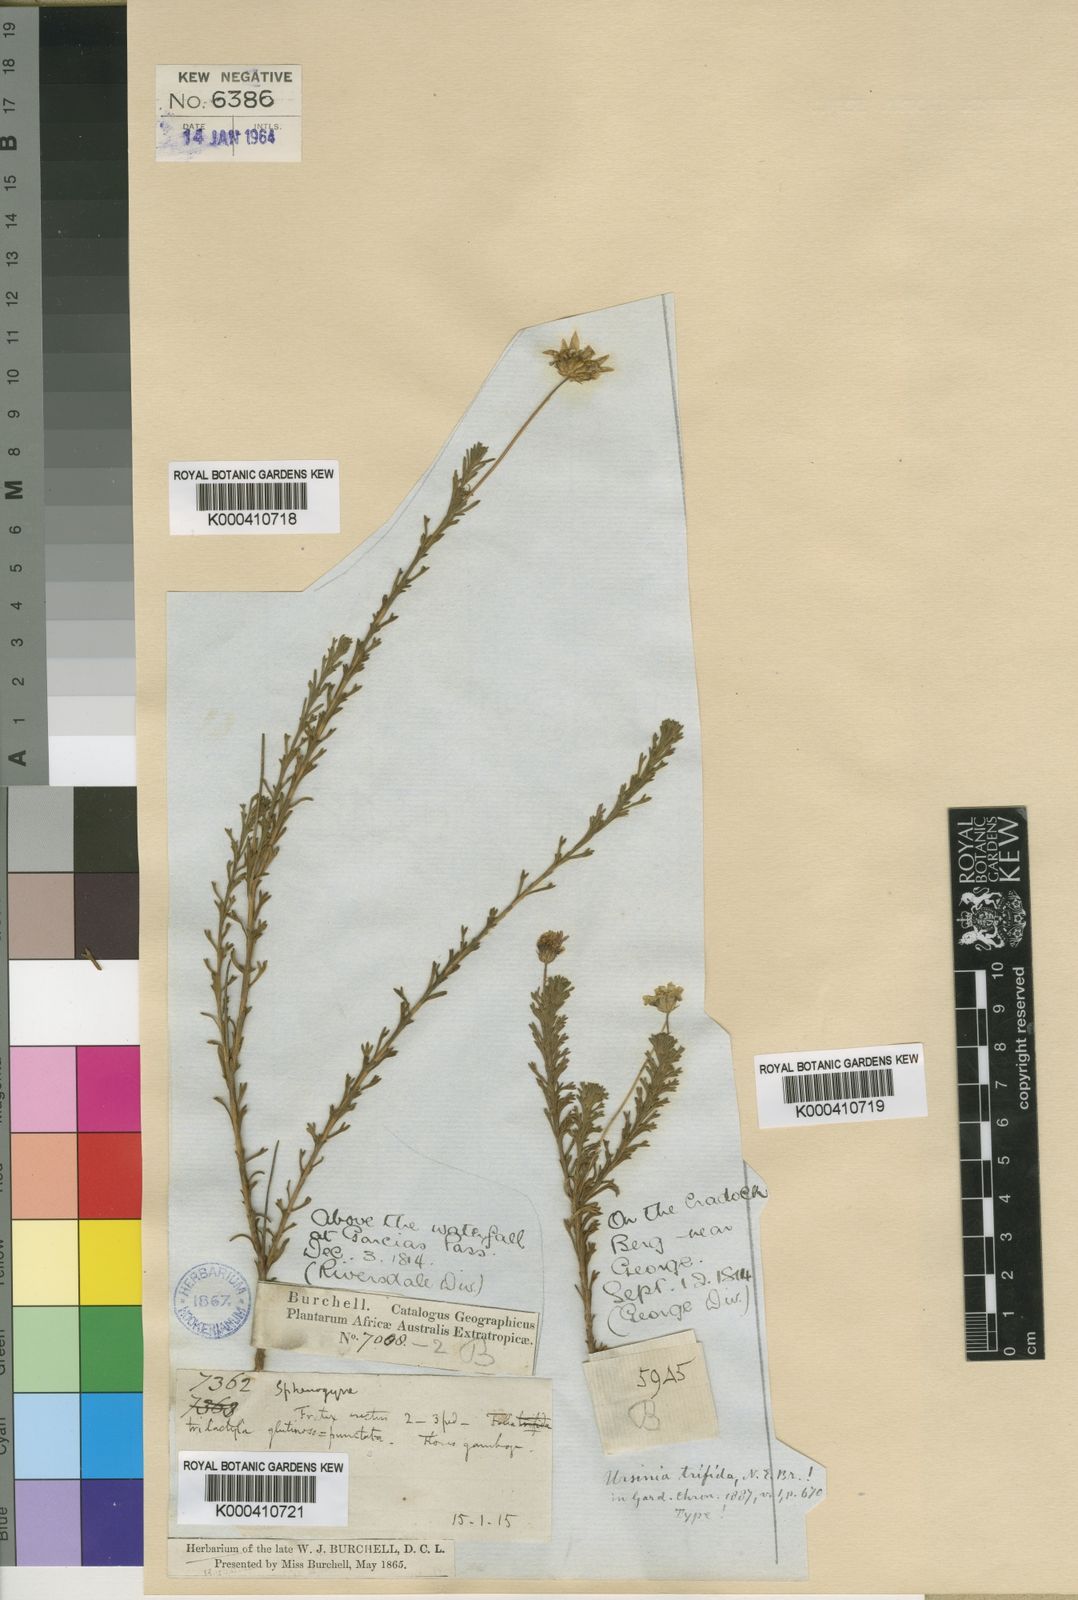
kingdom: Plantae
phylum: Tracheophyta
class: Magnoliopsida
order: Asterales
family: Asteraceae
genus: Ursinia
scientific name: Ursinia trifida
